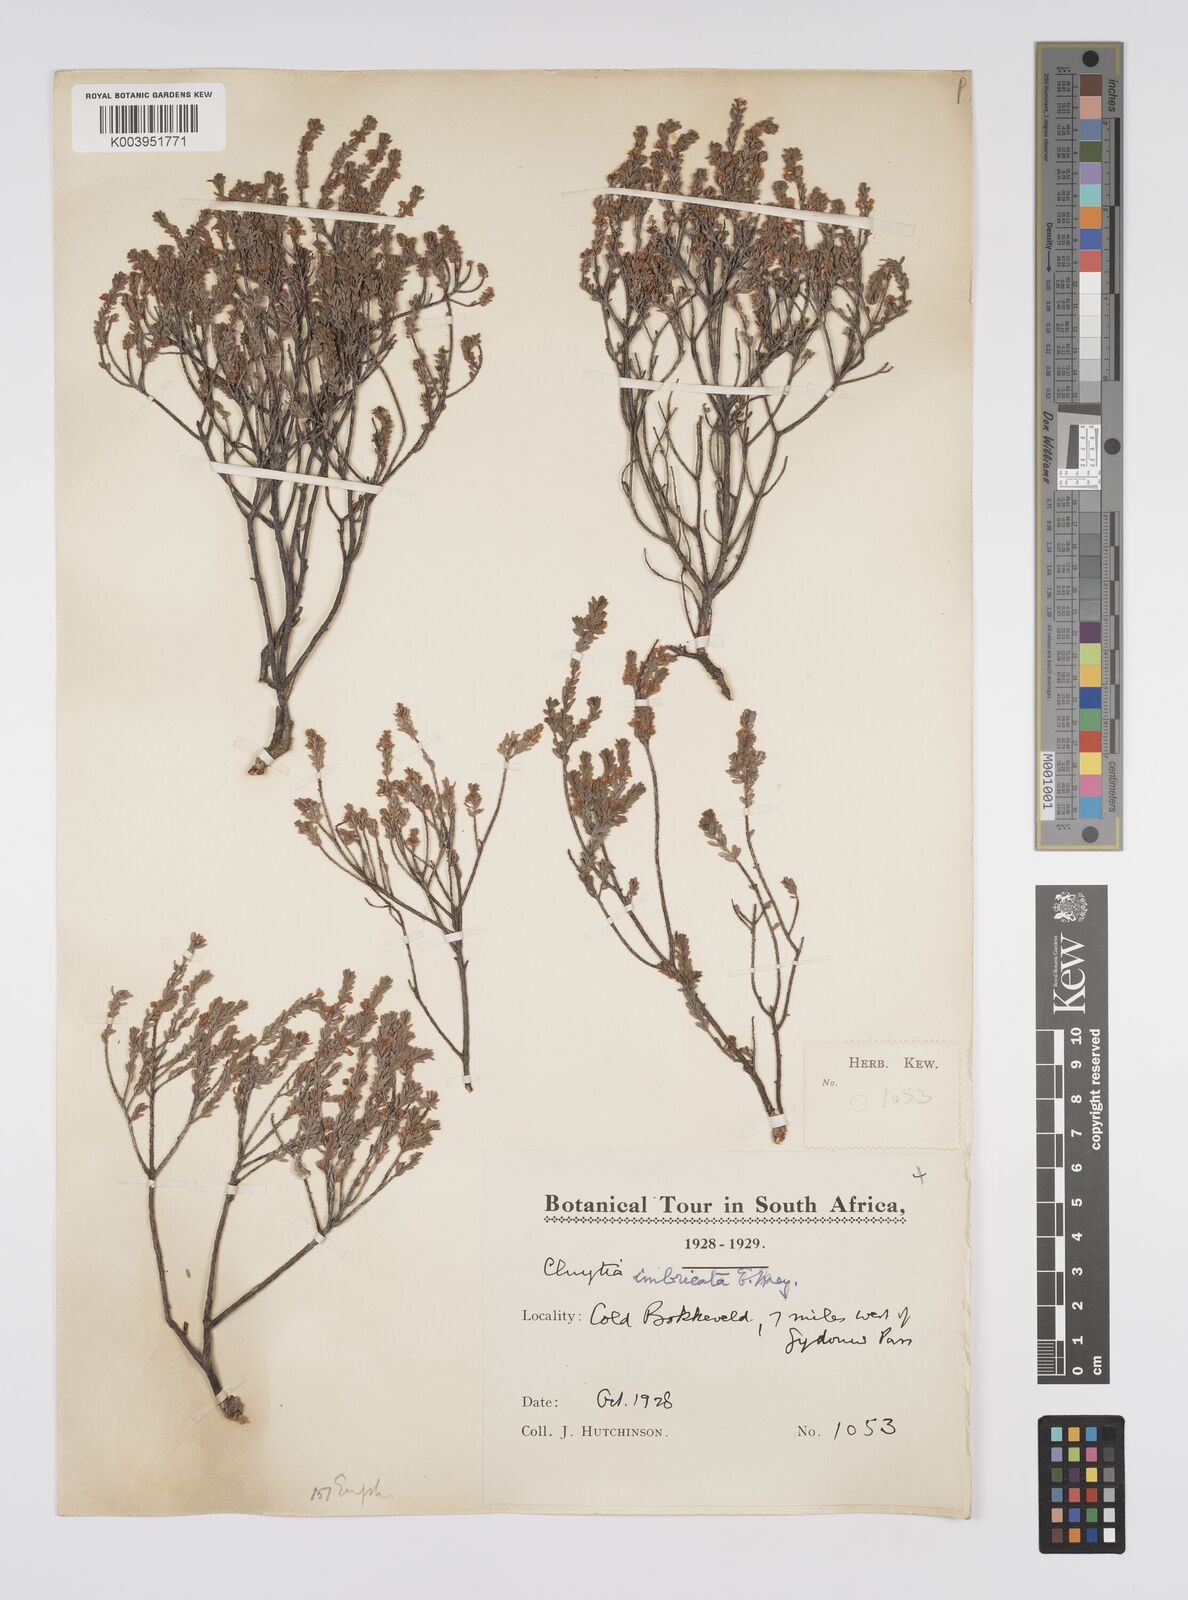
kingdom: Plantae
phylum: Tracheophyta
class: Magnoliopsida
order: Malpighiales
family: Peraceae
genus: Clutia
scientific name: Clutia imbricata
